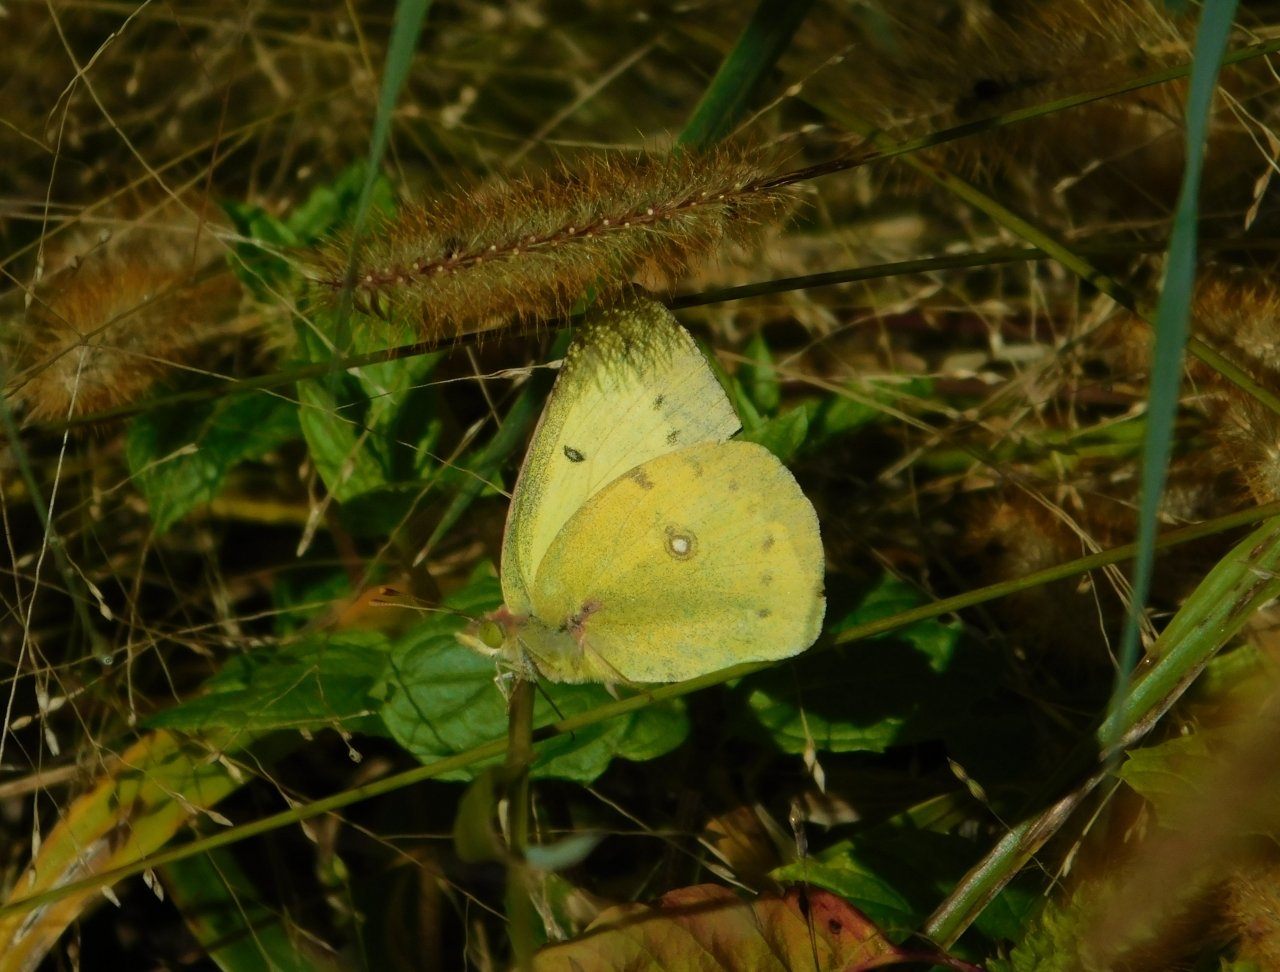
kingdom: Animalia
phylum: Arthropoda
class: Insecta
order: Lepidoptera
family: Pieridae
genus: Colias
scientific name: Colias philodice
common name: Clouded Sulphur
